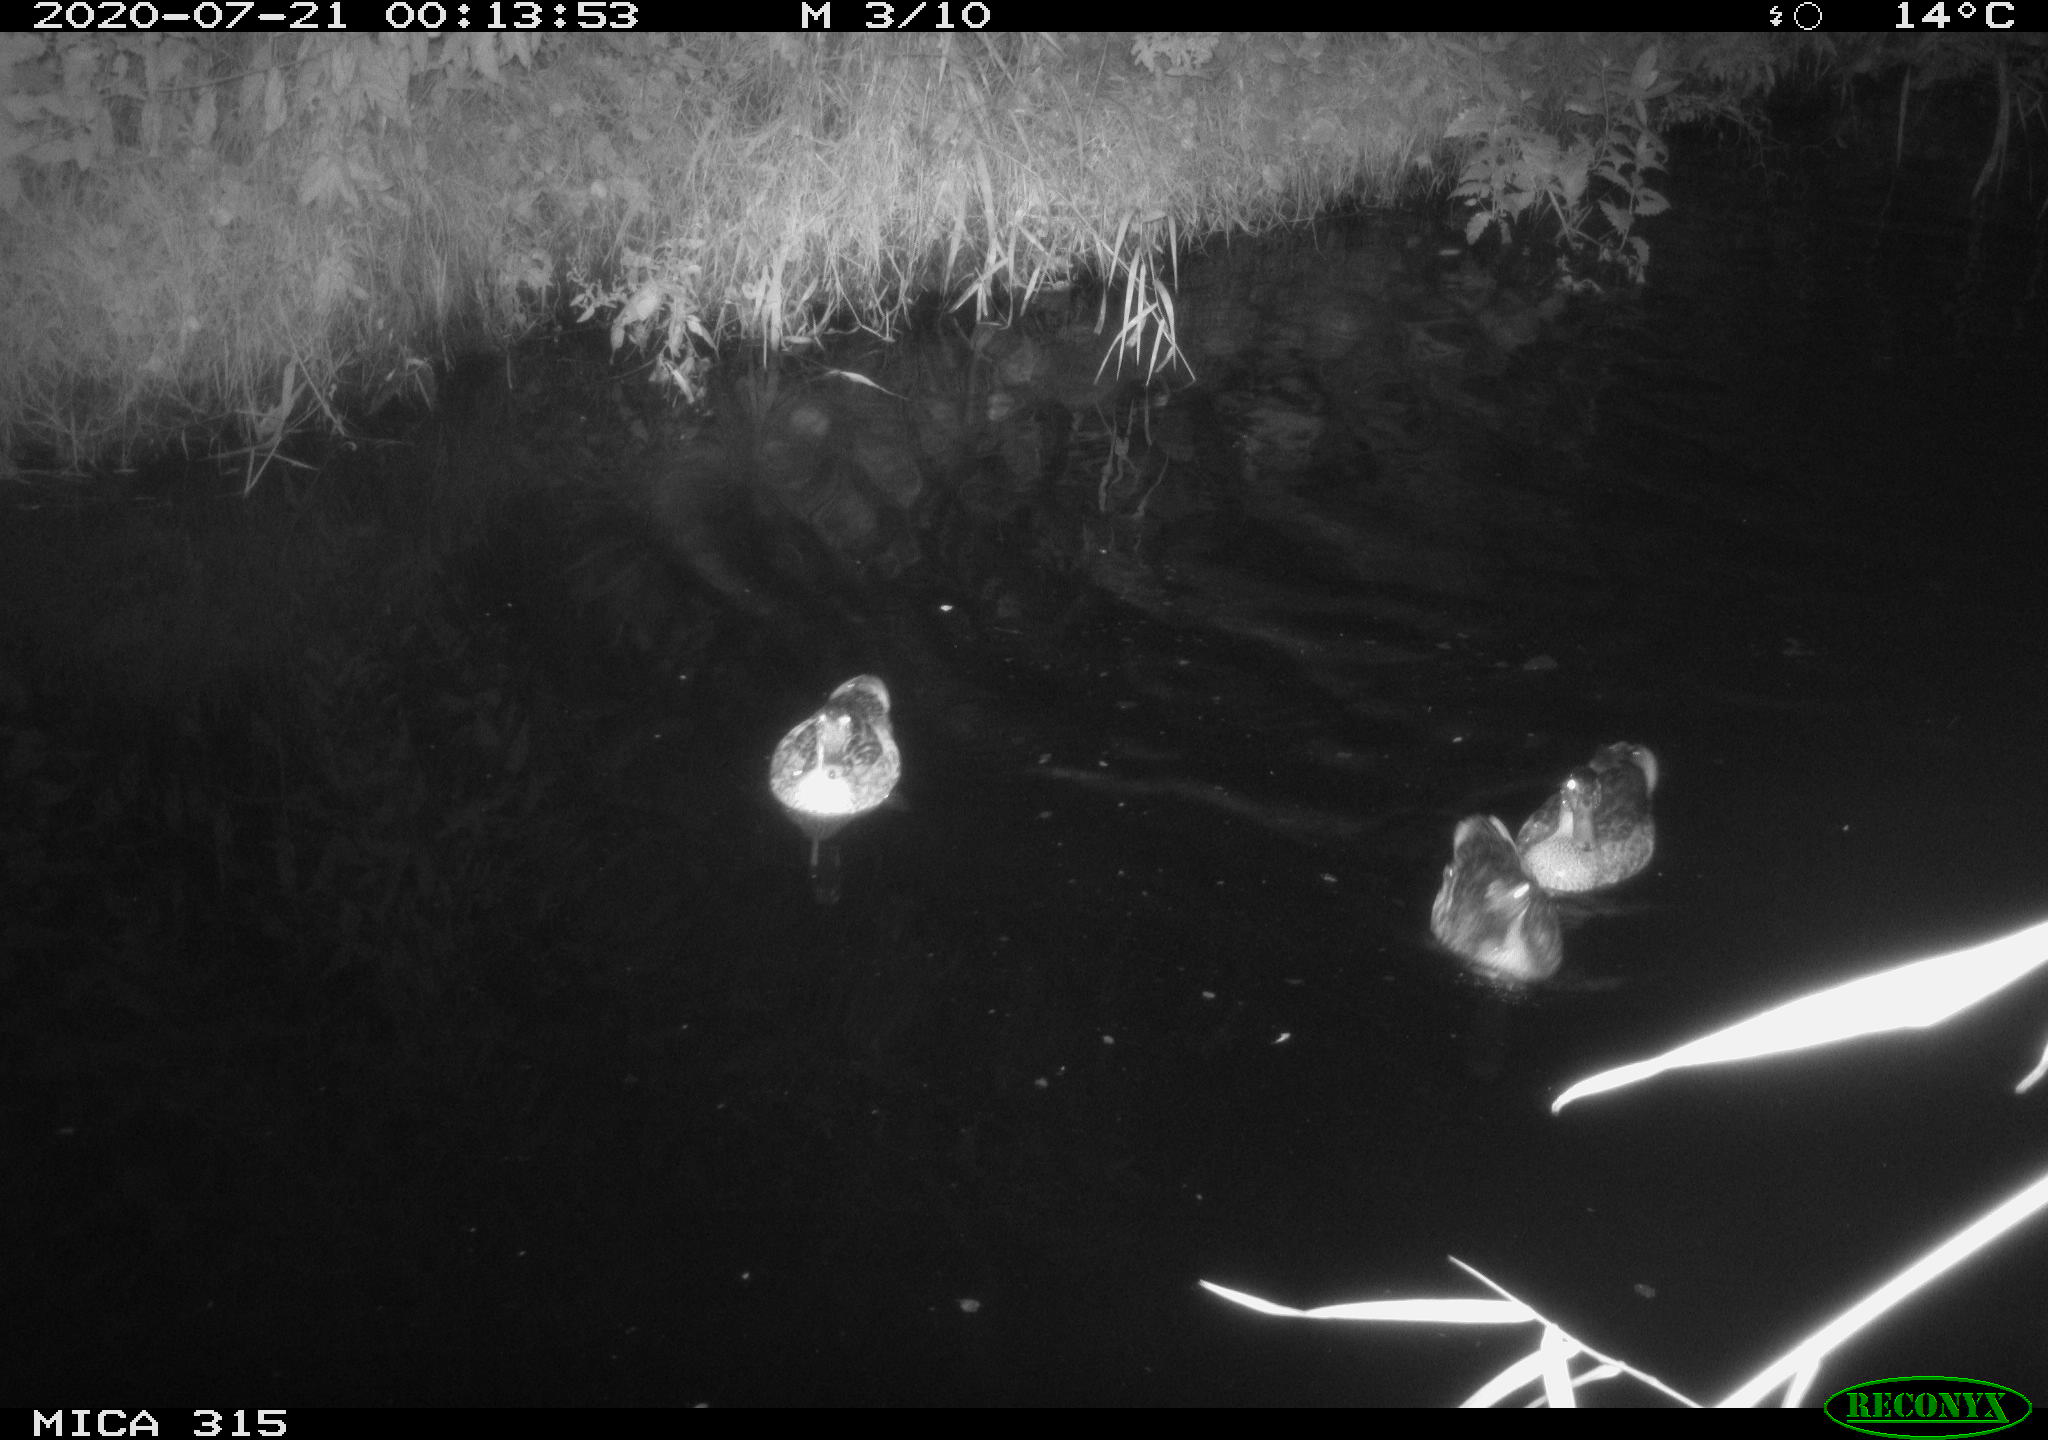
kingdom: Animalia
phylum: Chordata
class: Aves
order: Anseriformes
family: Anatidae
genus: Anas
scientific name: Anas platyrhynchos
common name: Mallard
